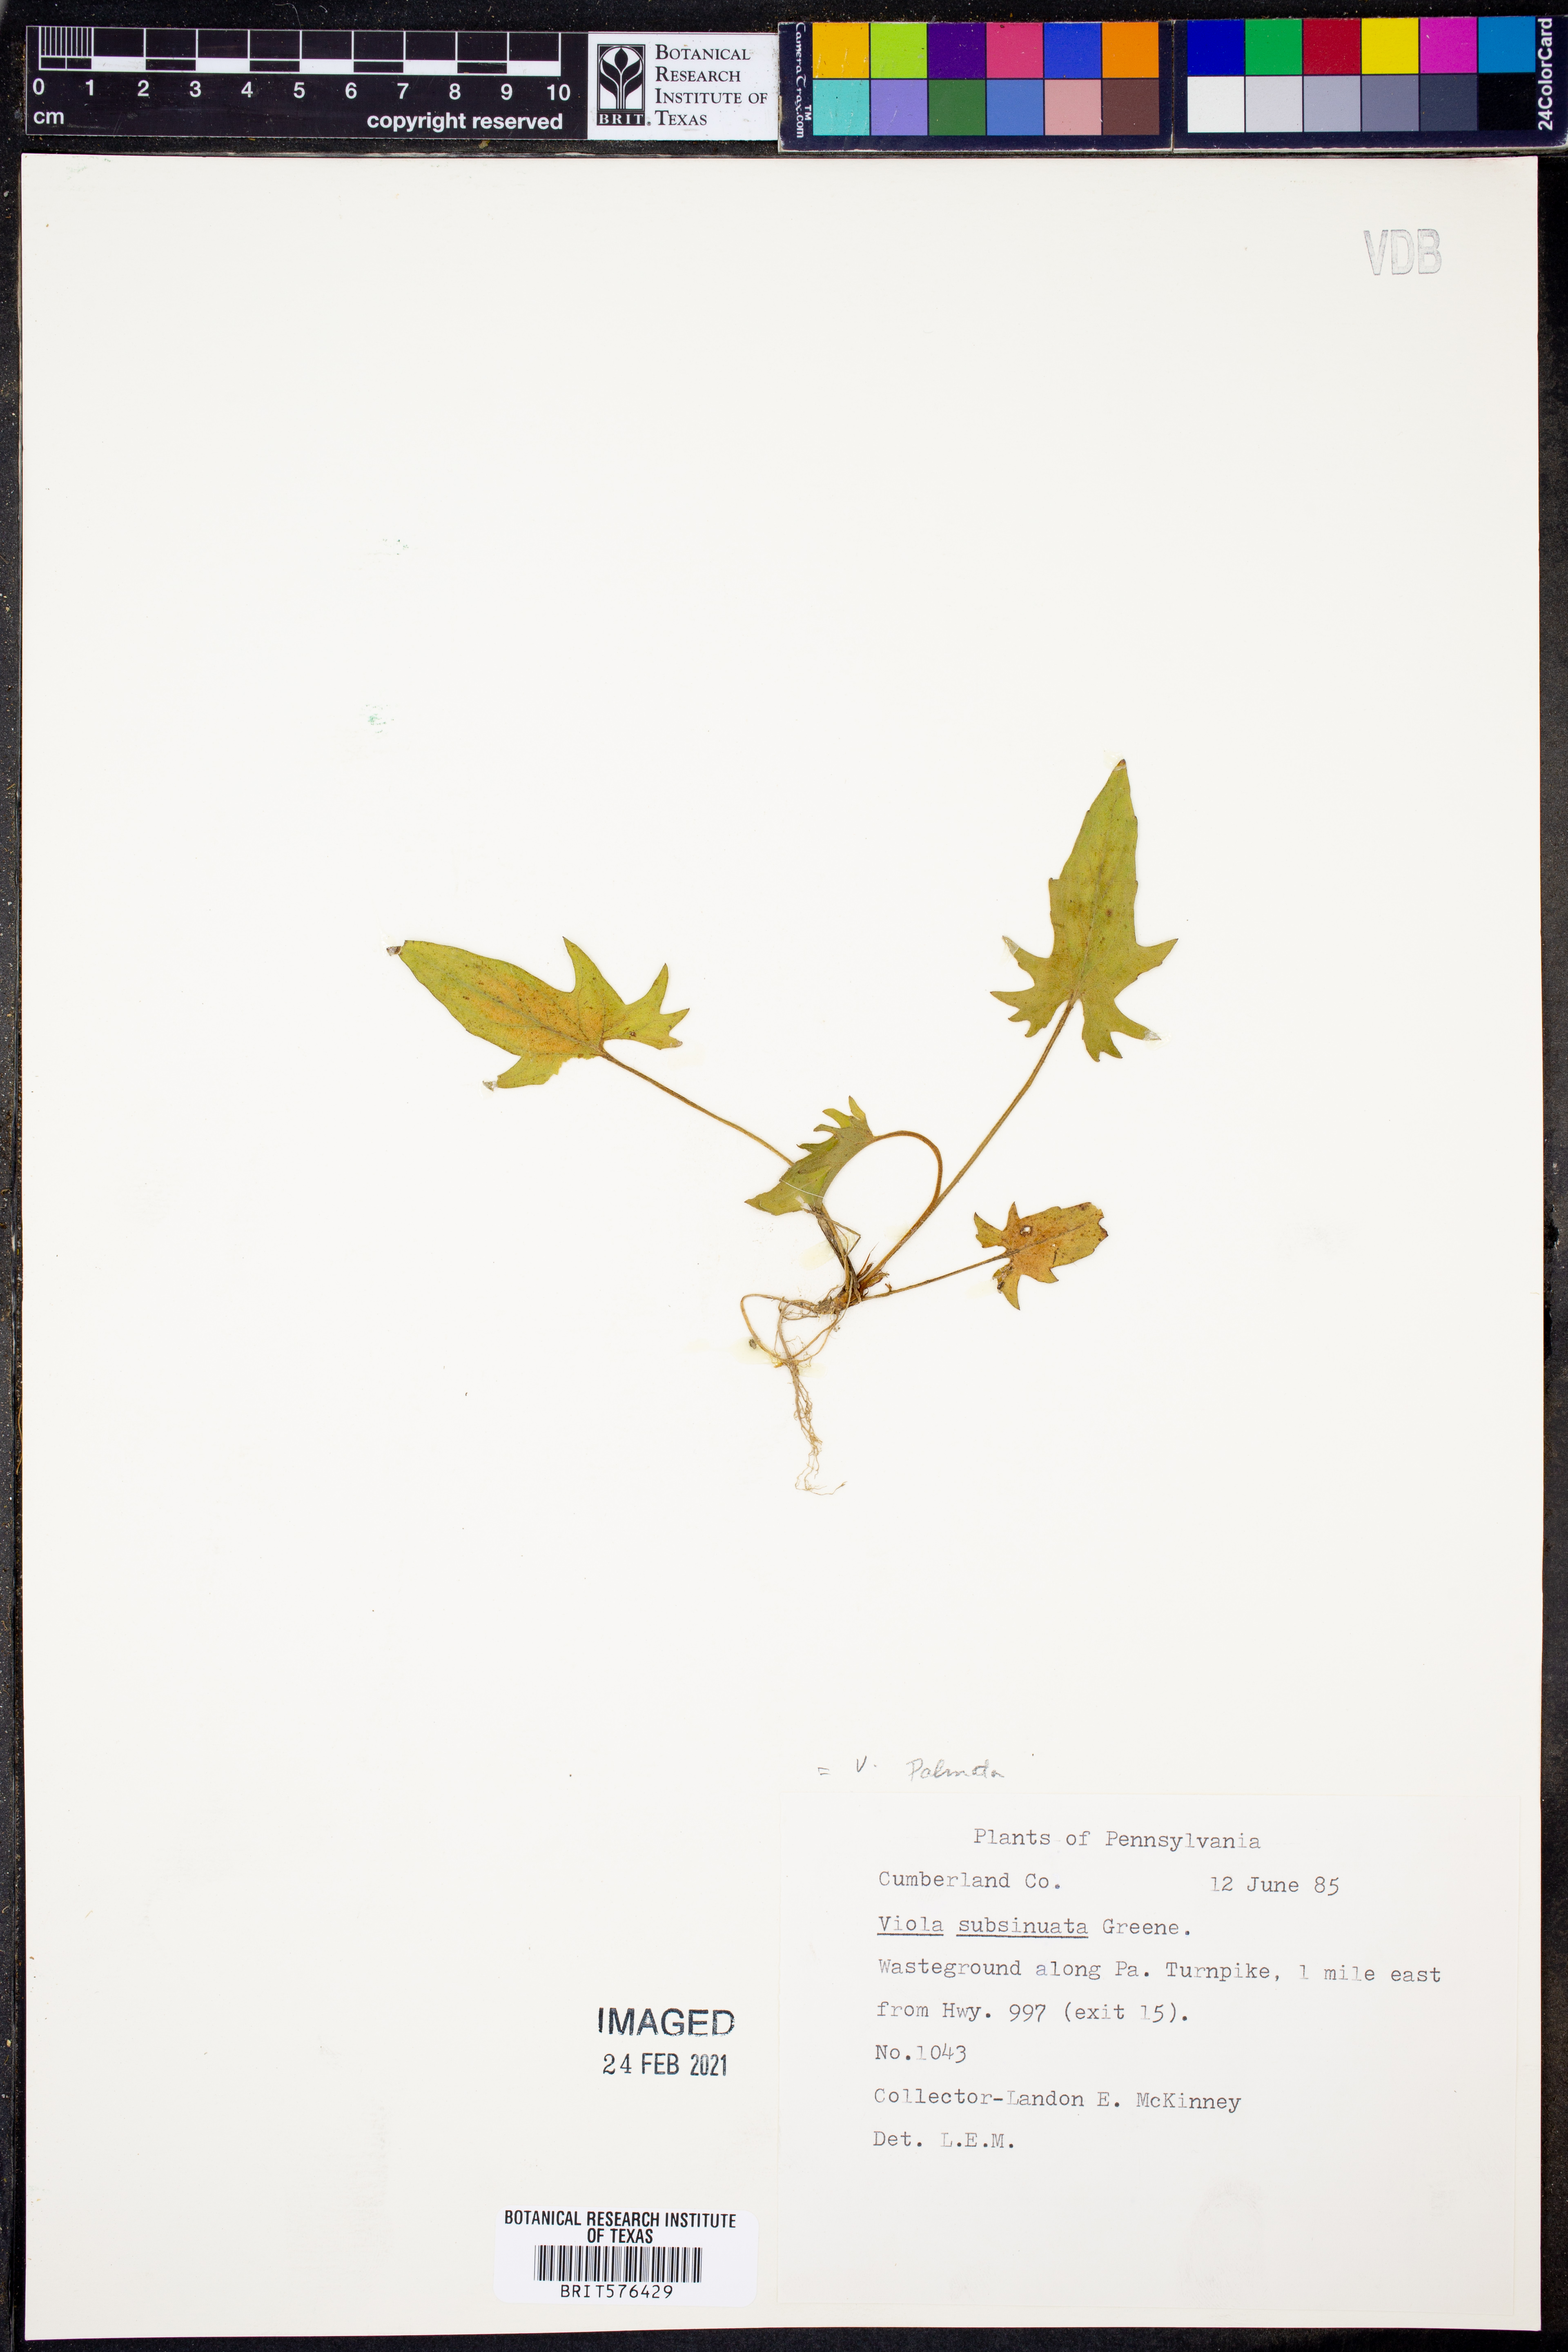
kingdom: Plantae
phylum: Tracheophyta
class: Magnoliopsida
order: Malpighiales
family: Violaceae
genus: Viola
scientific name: Viola palmata
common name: Early blue violet
